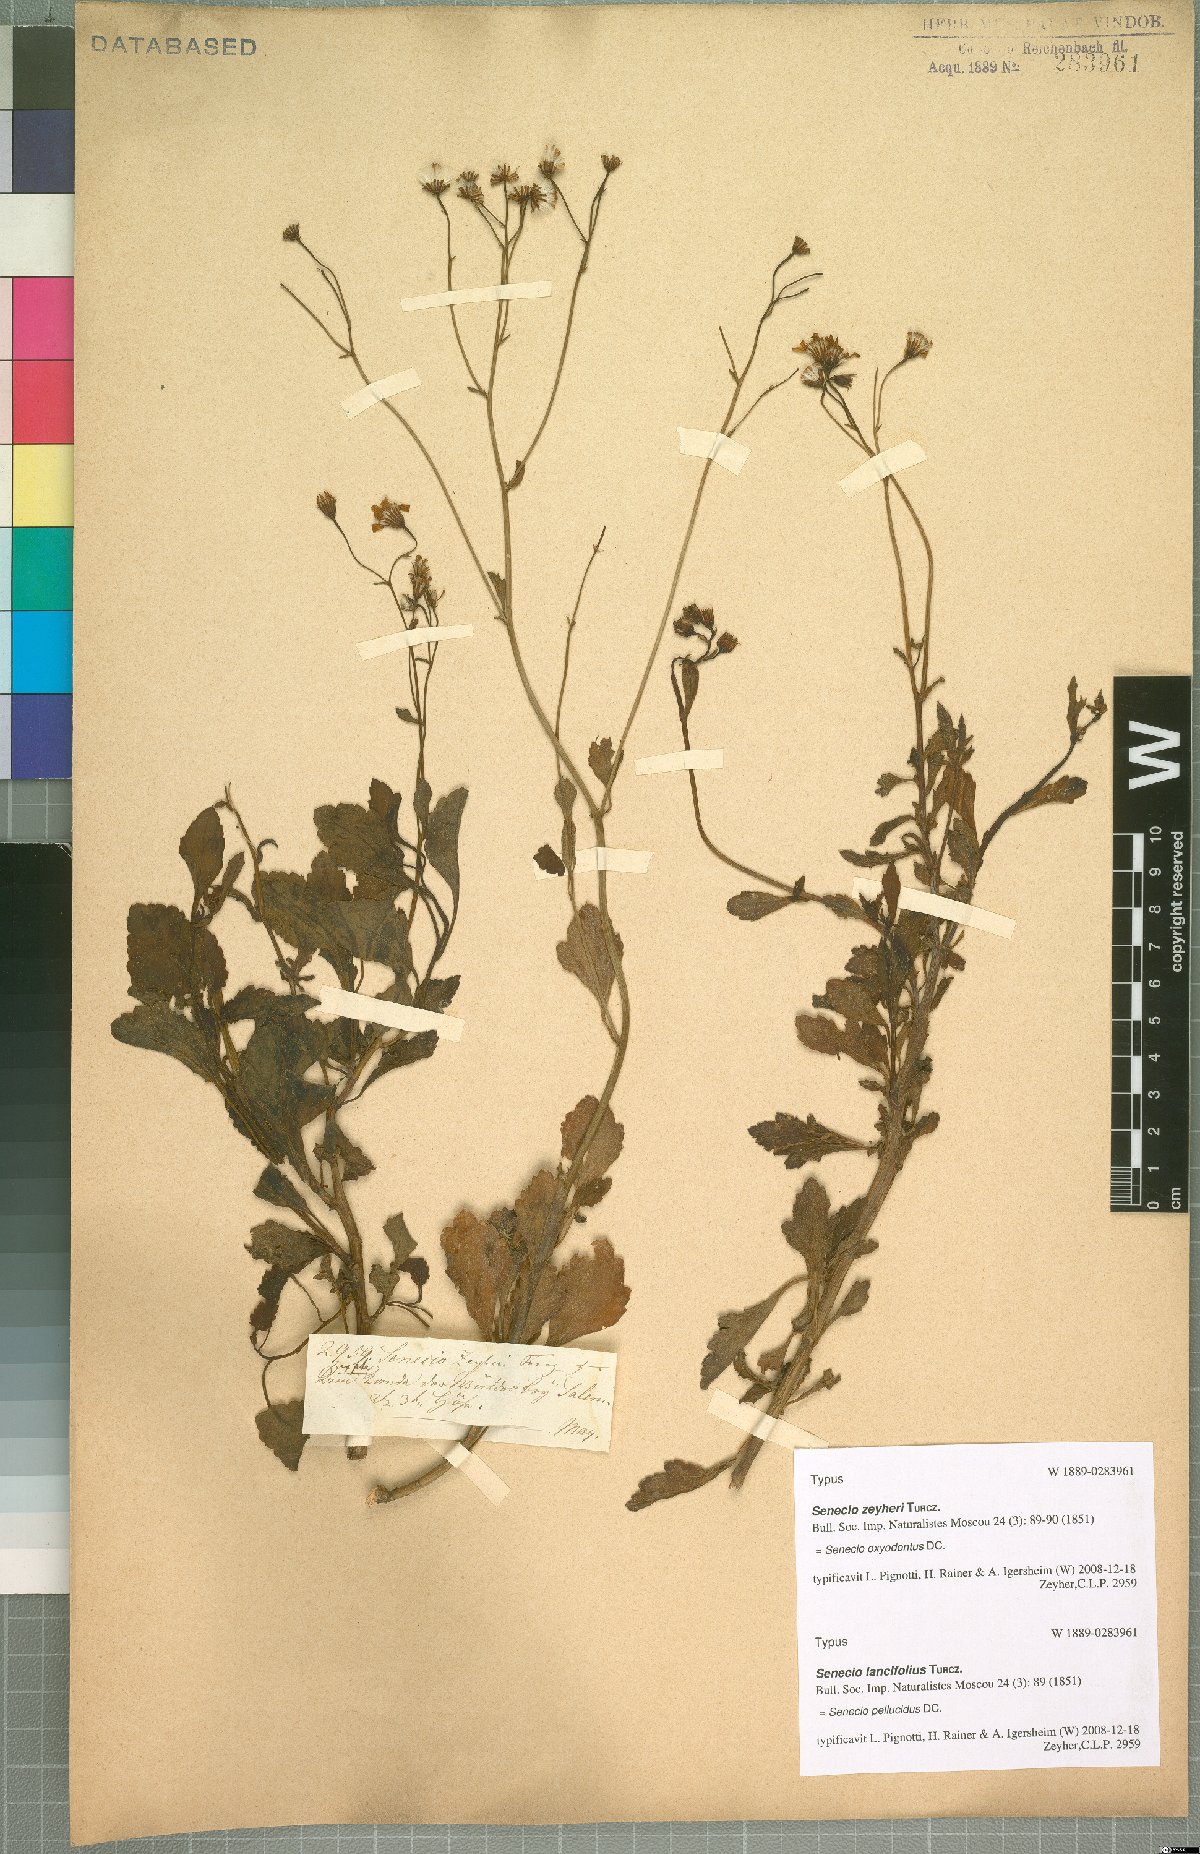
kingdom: Plantae
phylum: Tracheophyta
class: Magnoliopsida
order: Asterales
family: Asteraceae
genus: Senecio
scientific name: Senecio oxyodontus
